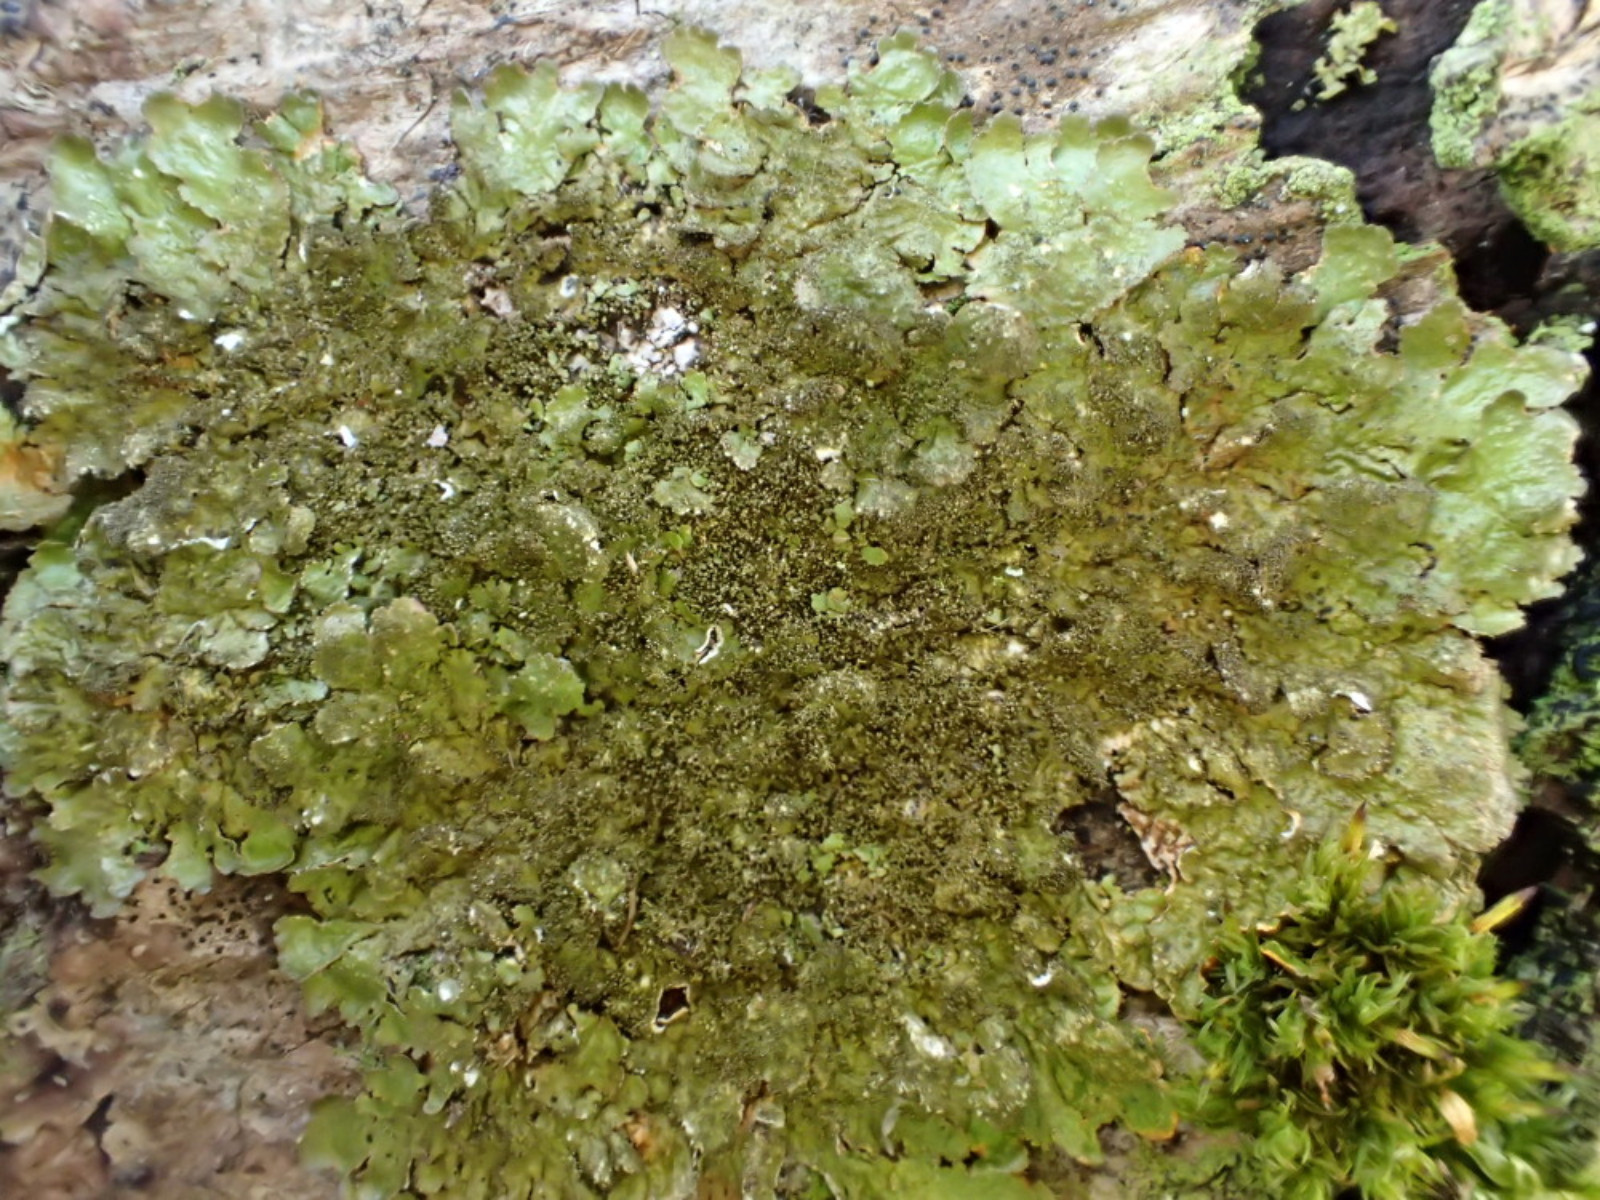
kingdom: Fungi
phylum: Ascomycota
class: Lecanoromycetes
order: Lecanorales
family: Parmeliaceae
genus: Melanelixia
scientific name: Melanelixia glabratula
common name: glinsende skållav
